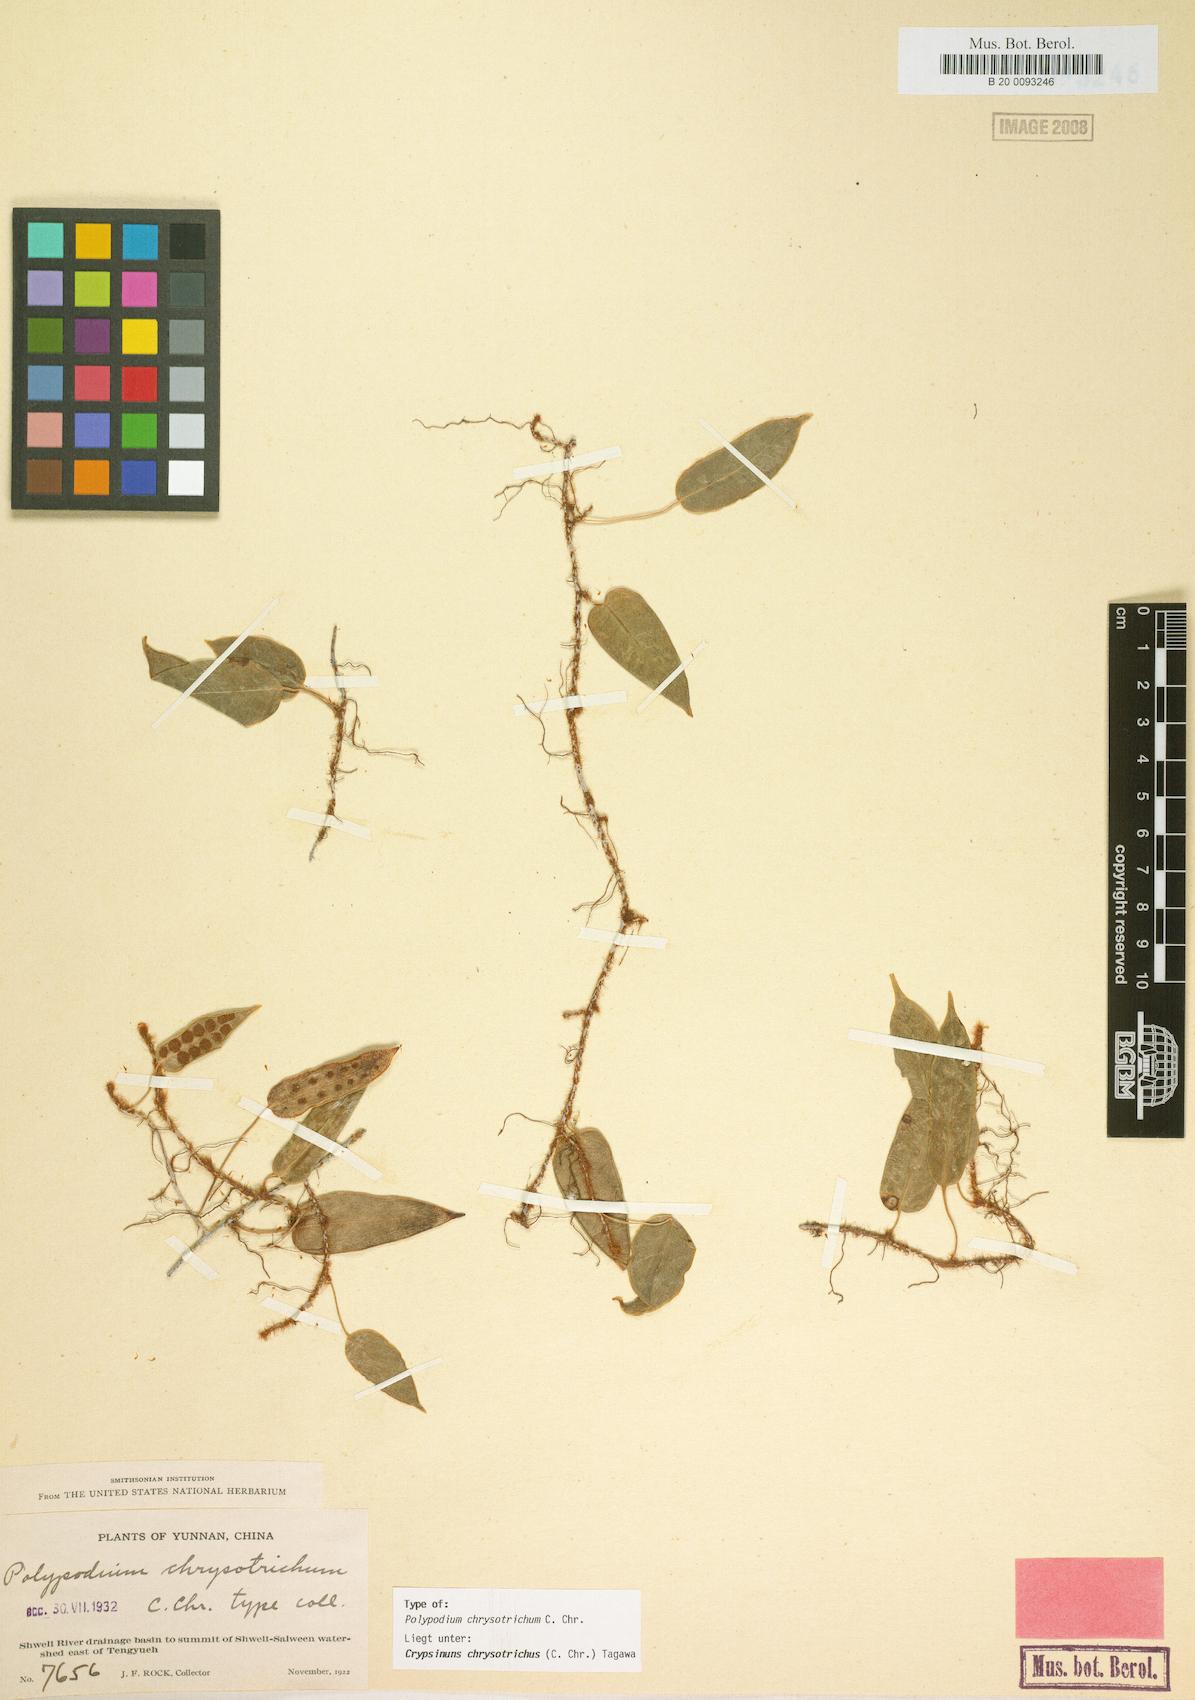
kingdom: Plantae
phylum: Tracheophyta
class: Polypodiopsida
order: Polypodiales
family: Polypodiaceae
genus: Selliguea
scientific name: Selliguea chrysotricha
